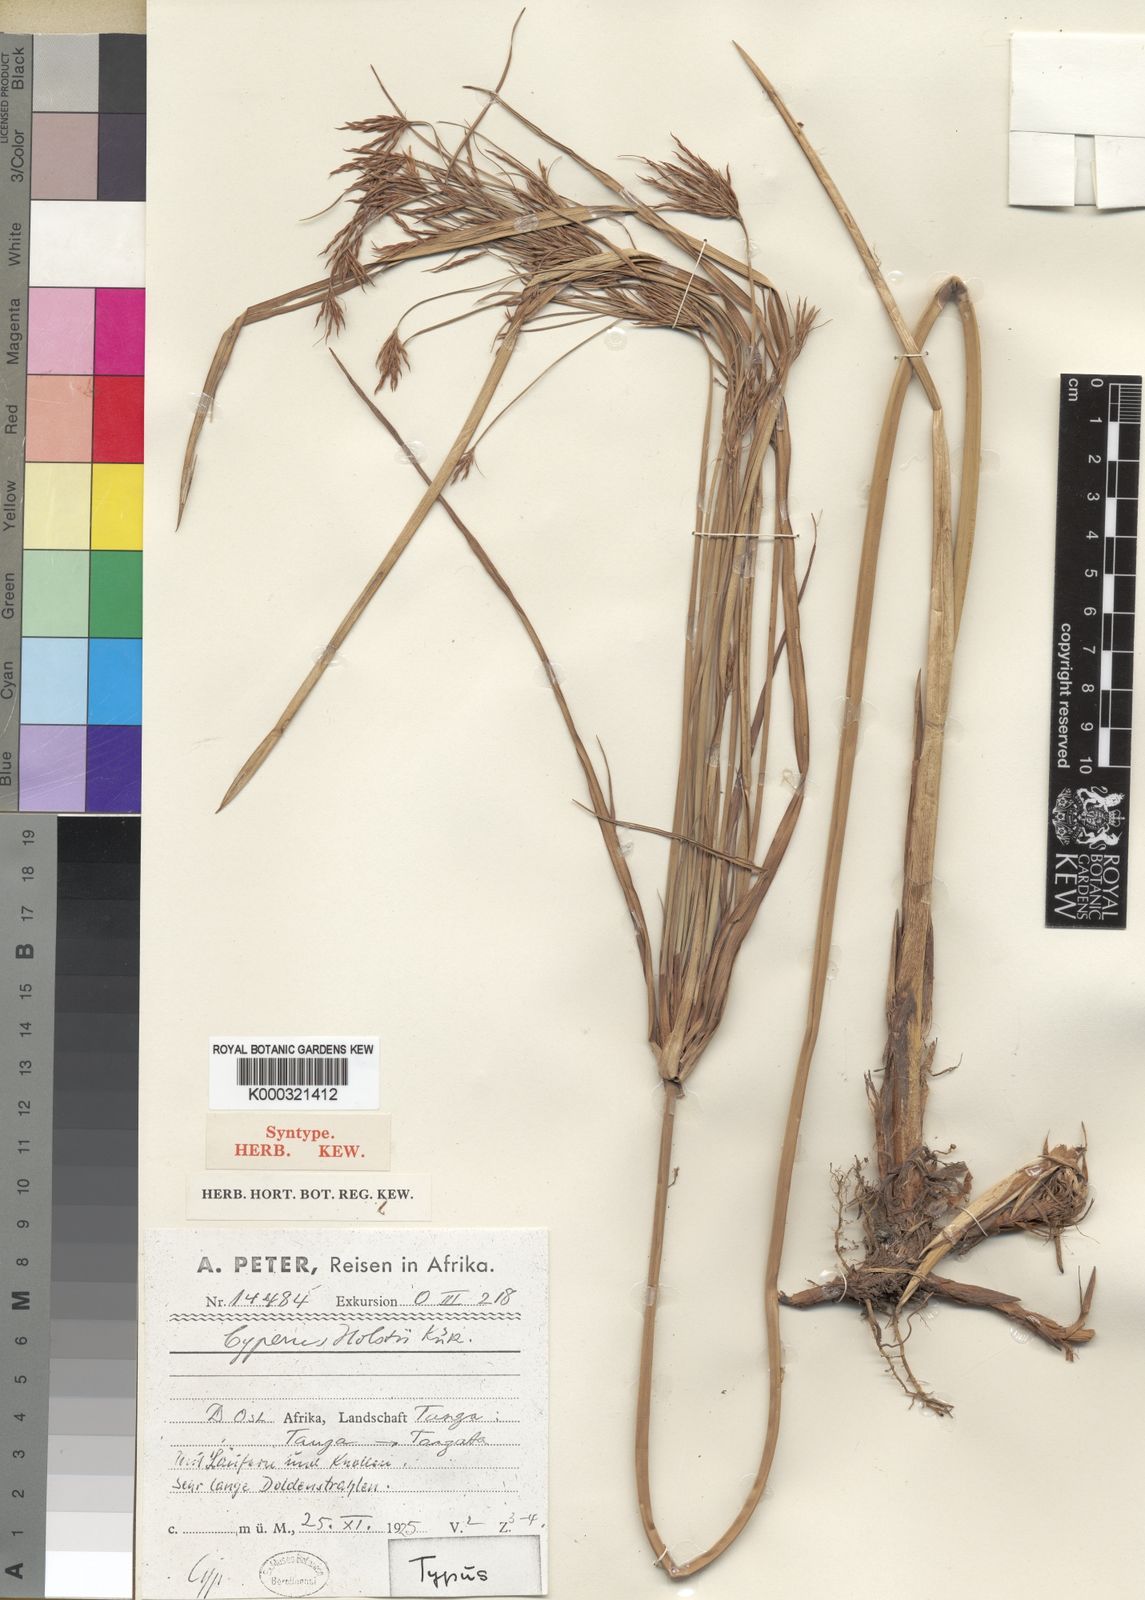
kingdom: Plantae
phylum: Tracheophyta
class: Liliopsida
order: Poales
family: Cyperaceae
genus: Cyperus
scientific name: Cyperus
